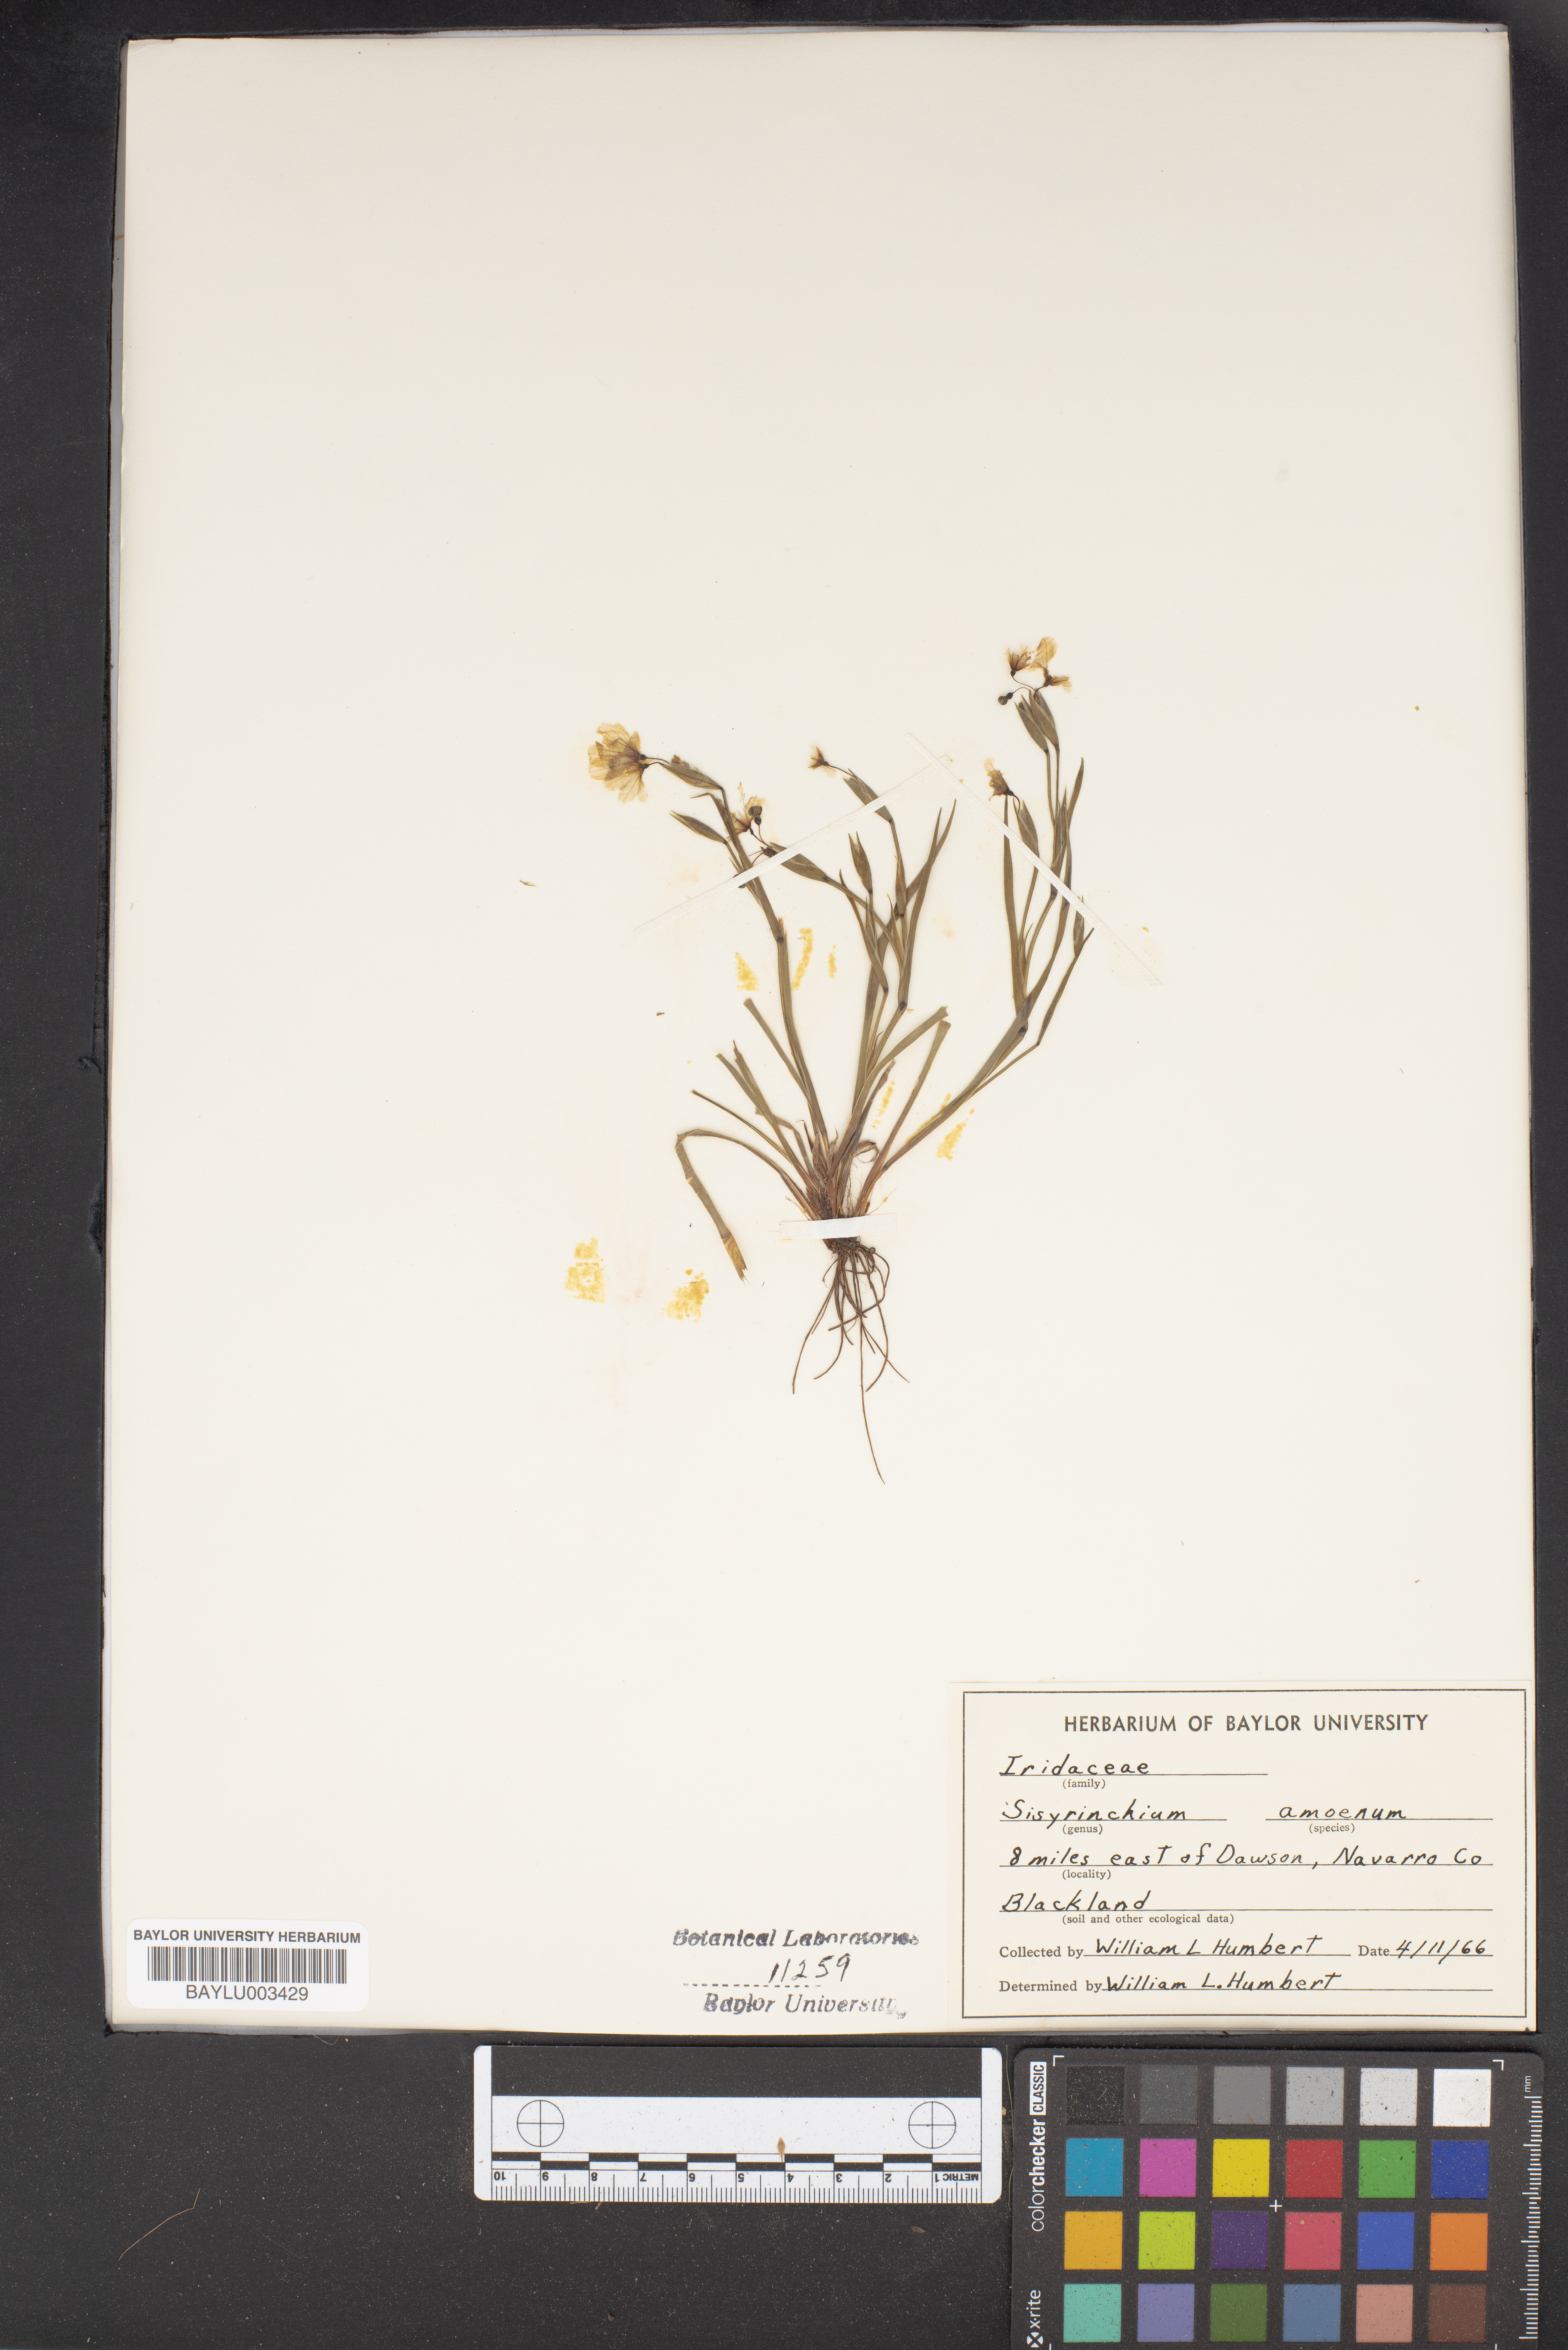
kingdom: Plantae
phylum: Tracheophyta
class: Liliopsida
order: Asparagales
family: Iridaceae
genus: Sisyrinchium
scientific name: Sisyrinchium ensigerum
